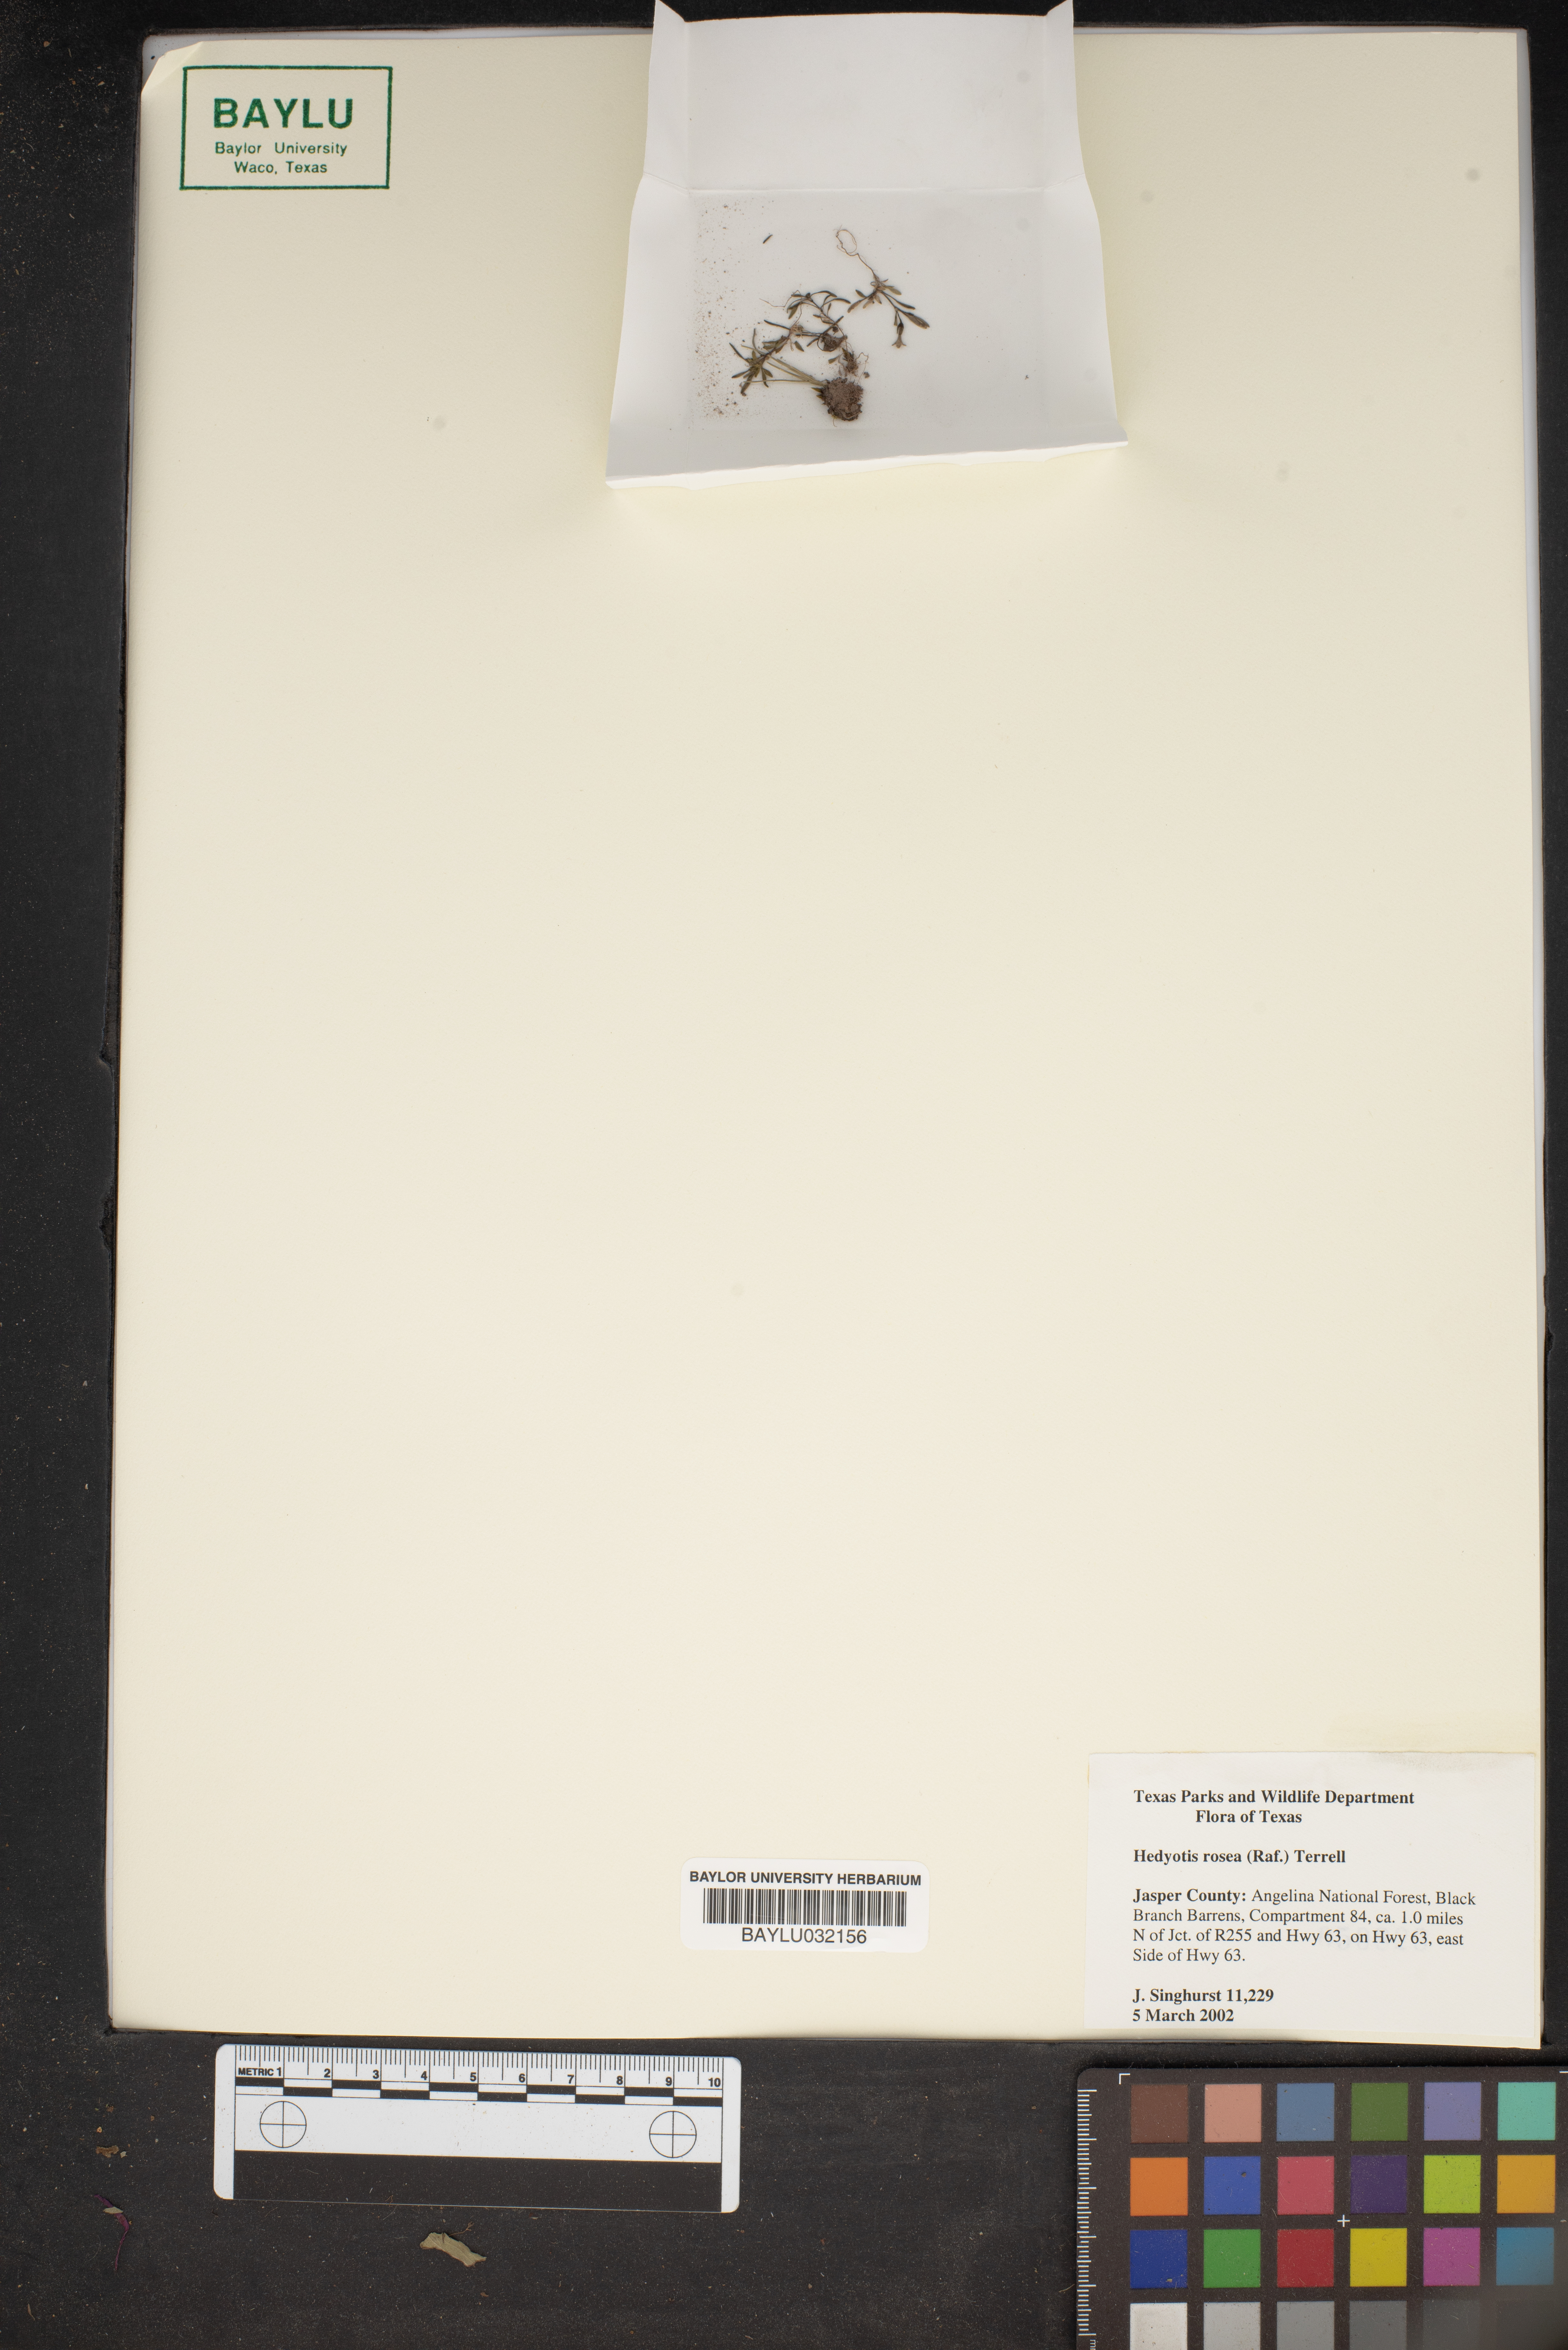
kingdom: Plantae
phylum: Tracheophyta
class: Magnoliopsida
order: Gentianales
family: Rubiaceae
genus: Houstonia
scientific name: Houstonia rosea
